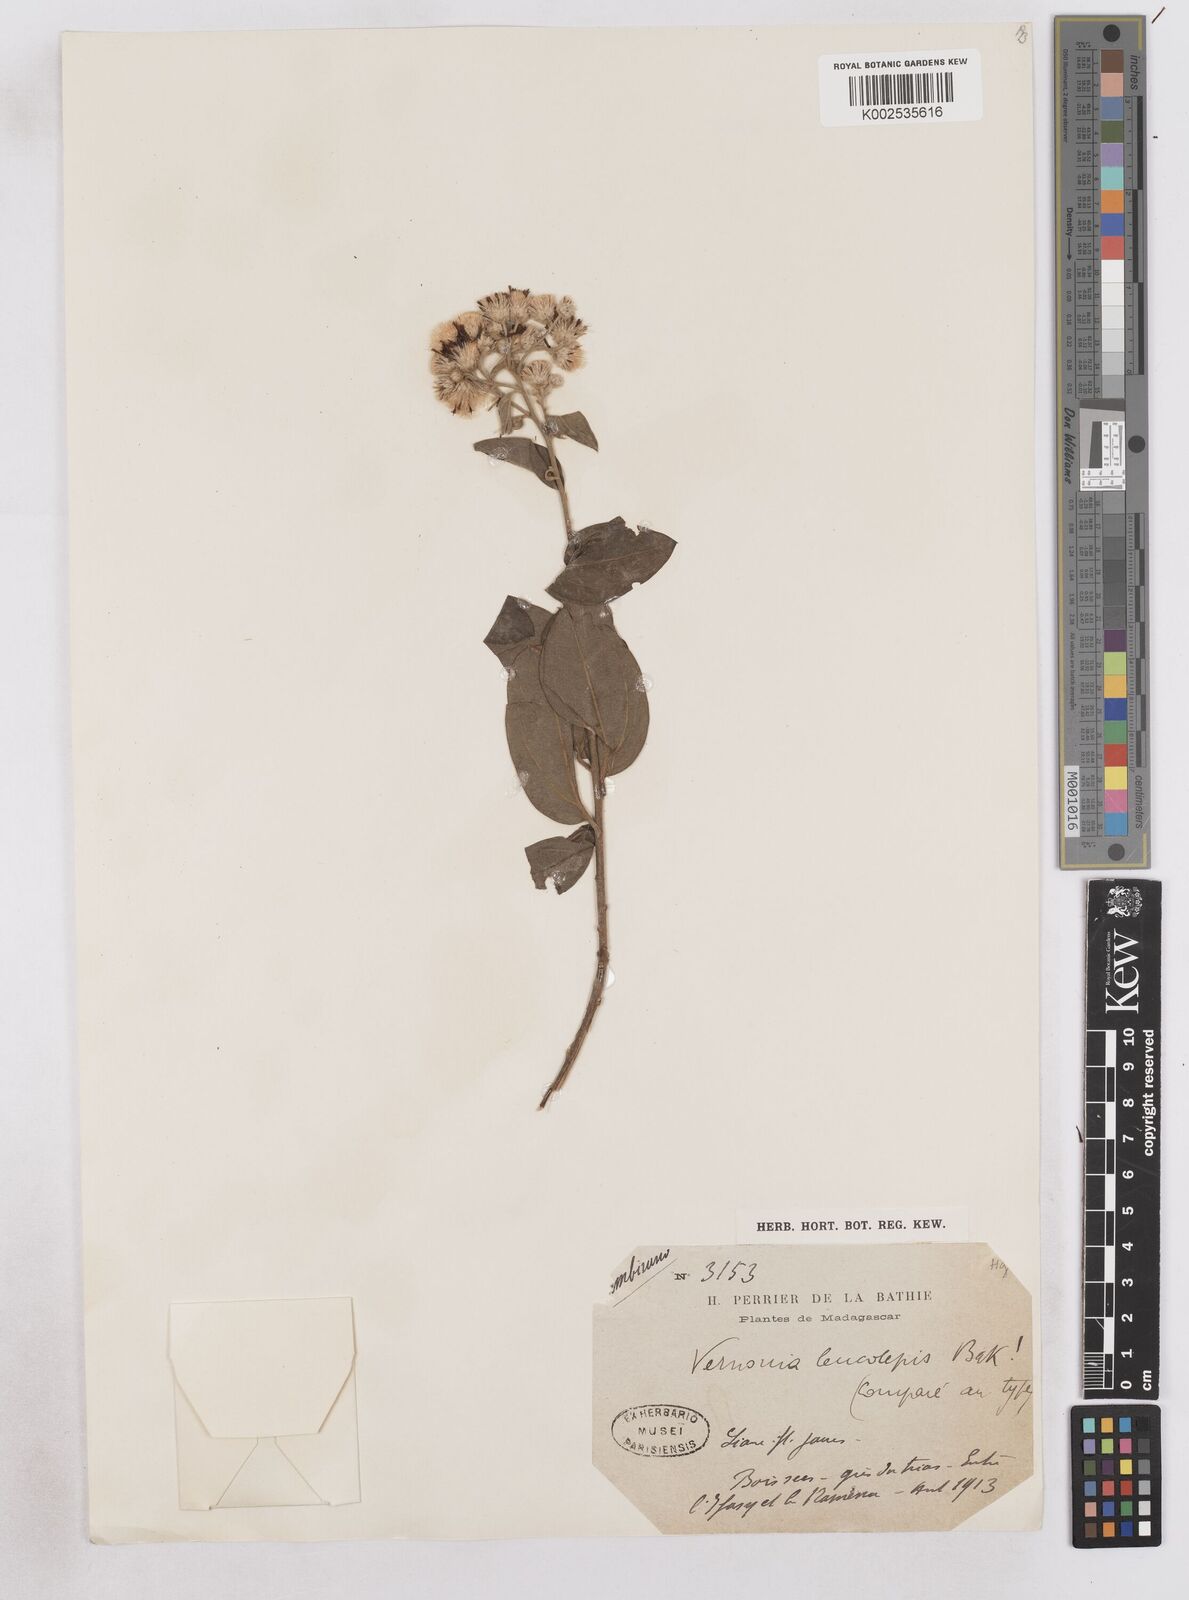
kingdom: Plantae
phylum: Tracheophyta
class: Magnoliopsida
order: Asterales
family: Asteraceae
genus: Distephanus
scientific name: Distephanus nummulariifolius
